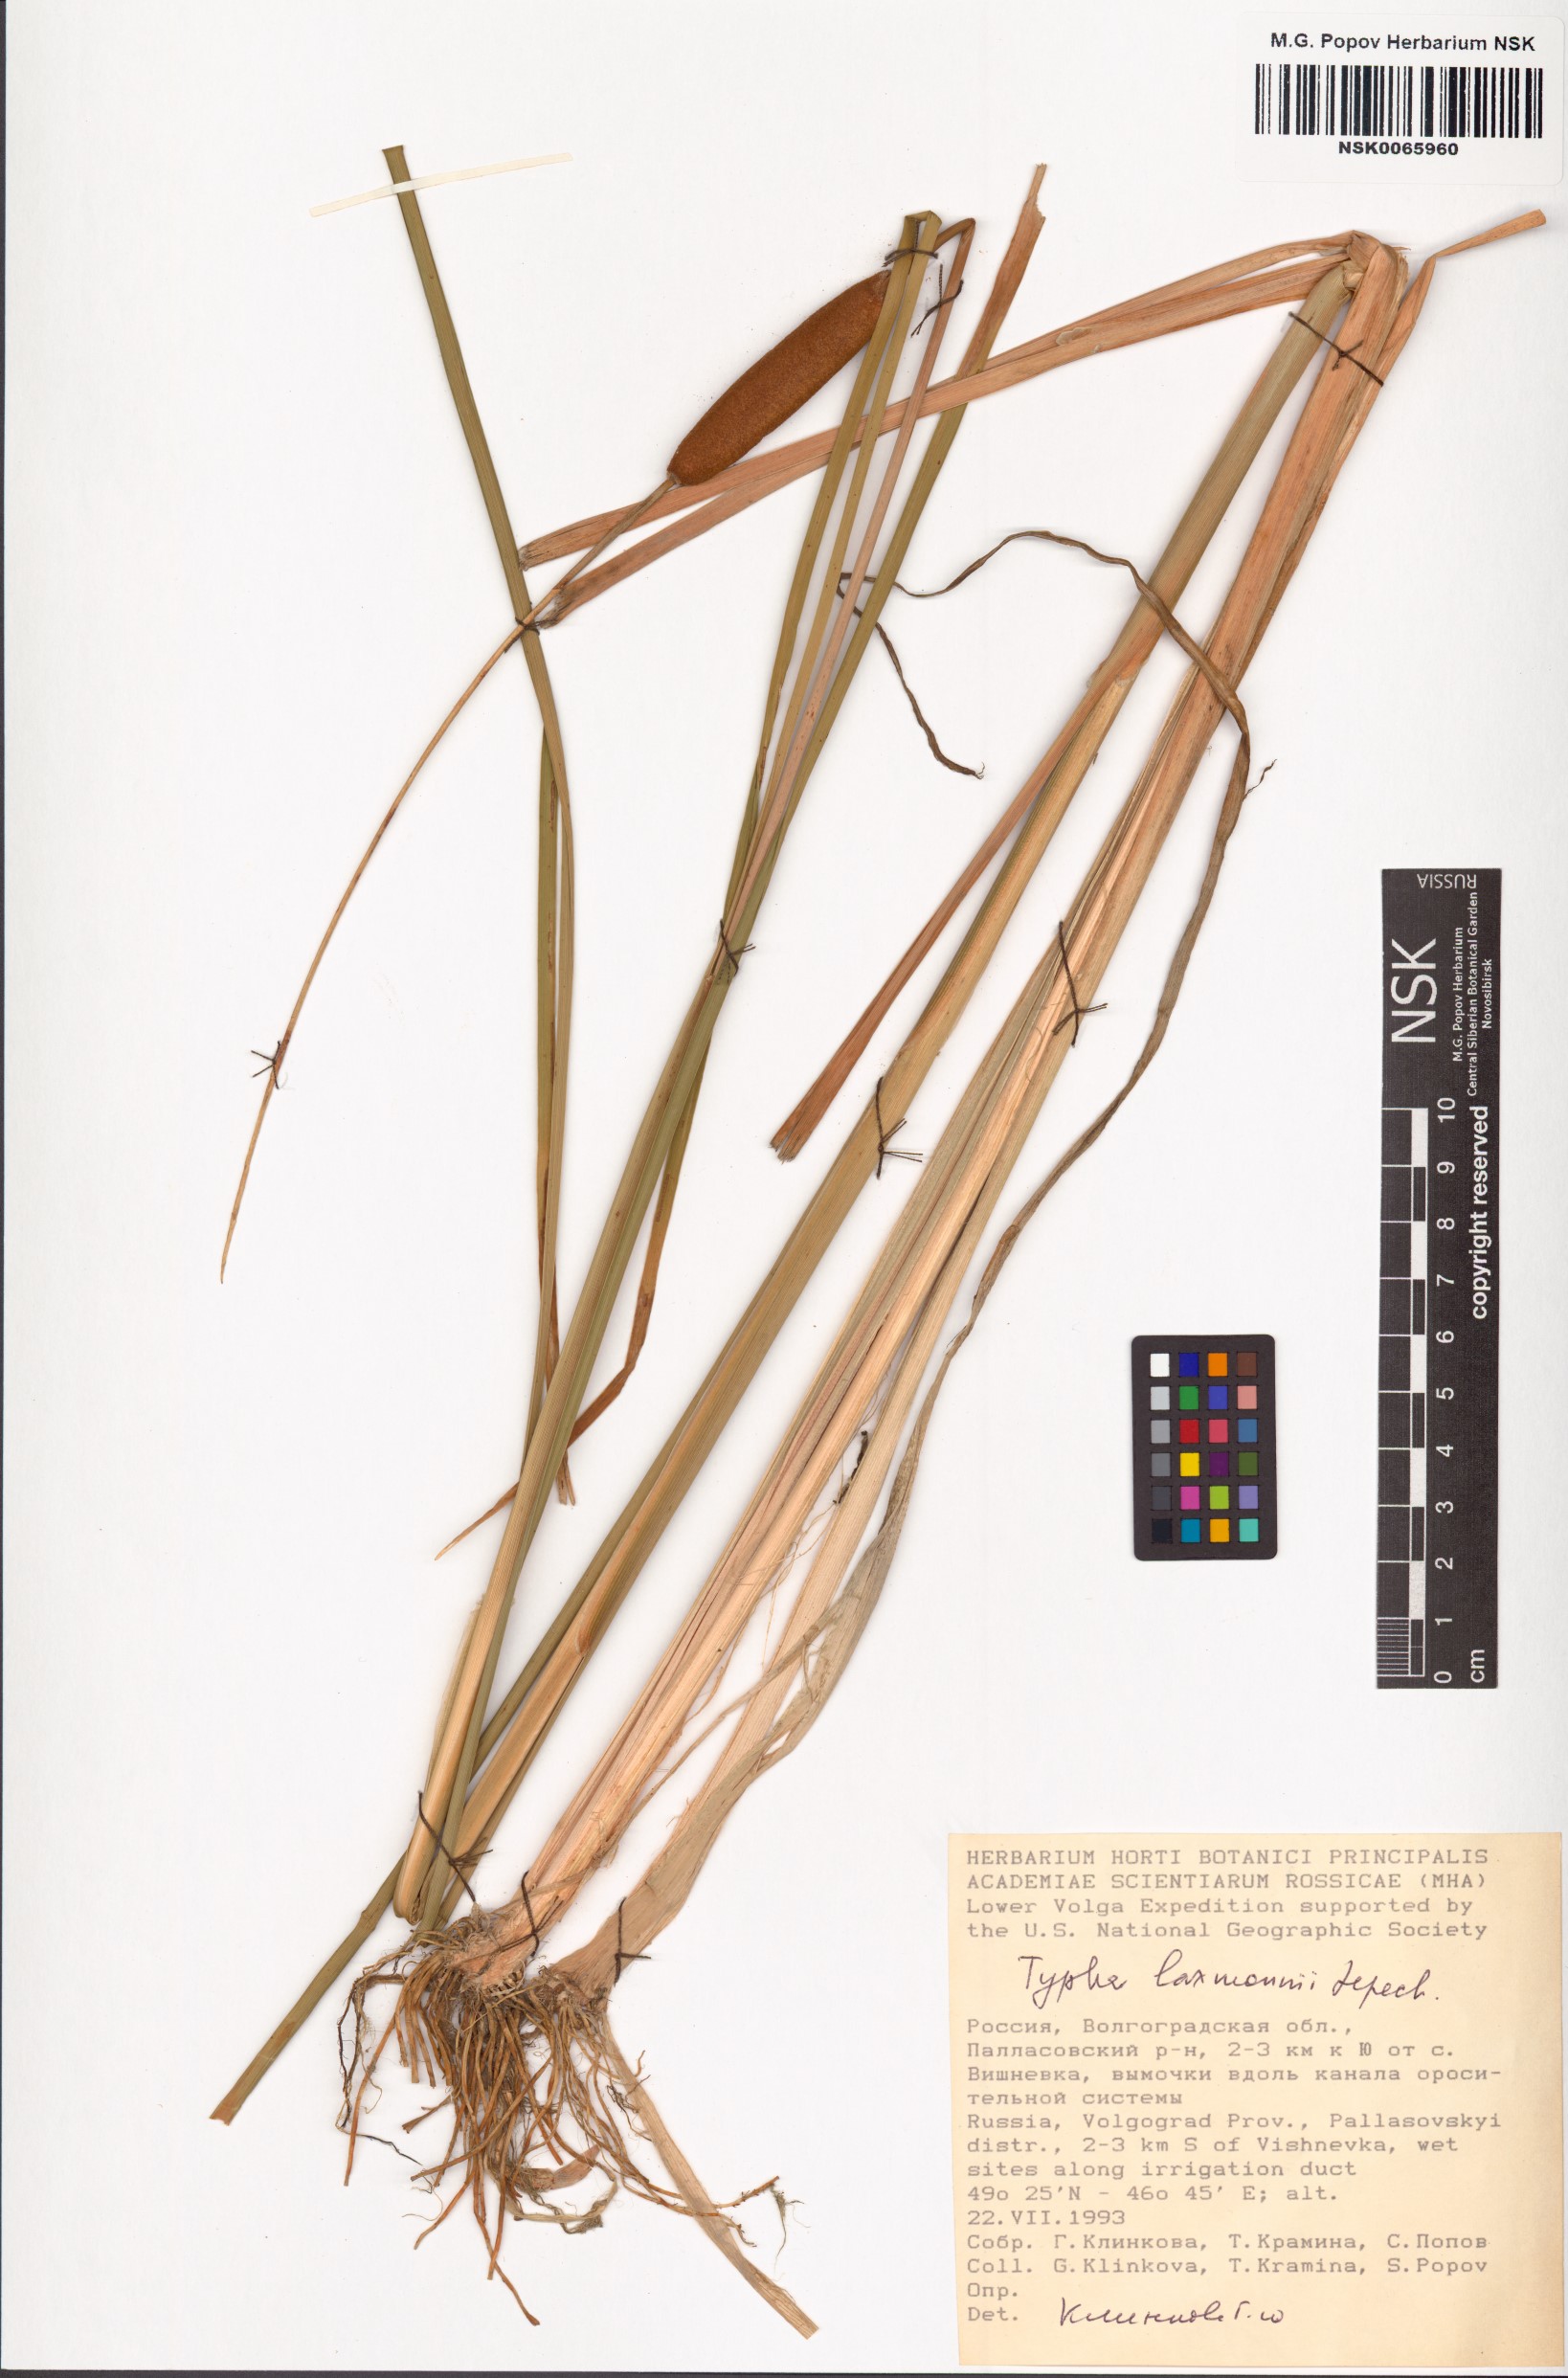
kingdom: Plantae
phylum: Tracheophyta
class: Liliopsida
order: Poales
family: Typhaceae
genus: Typha
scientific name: Typha laxmannii
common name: Laxman’s bulrush
